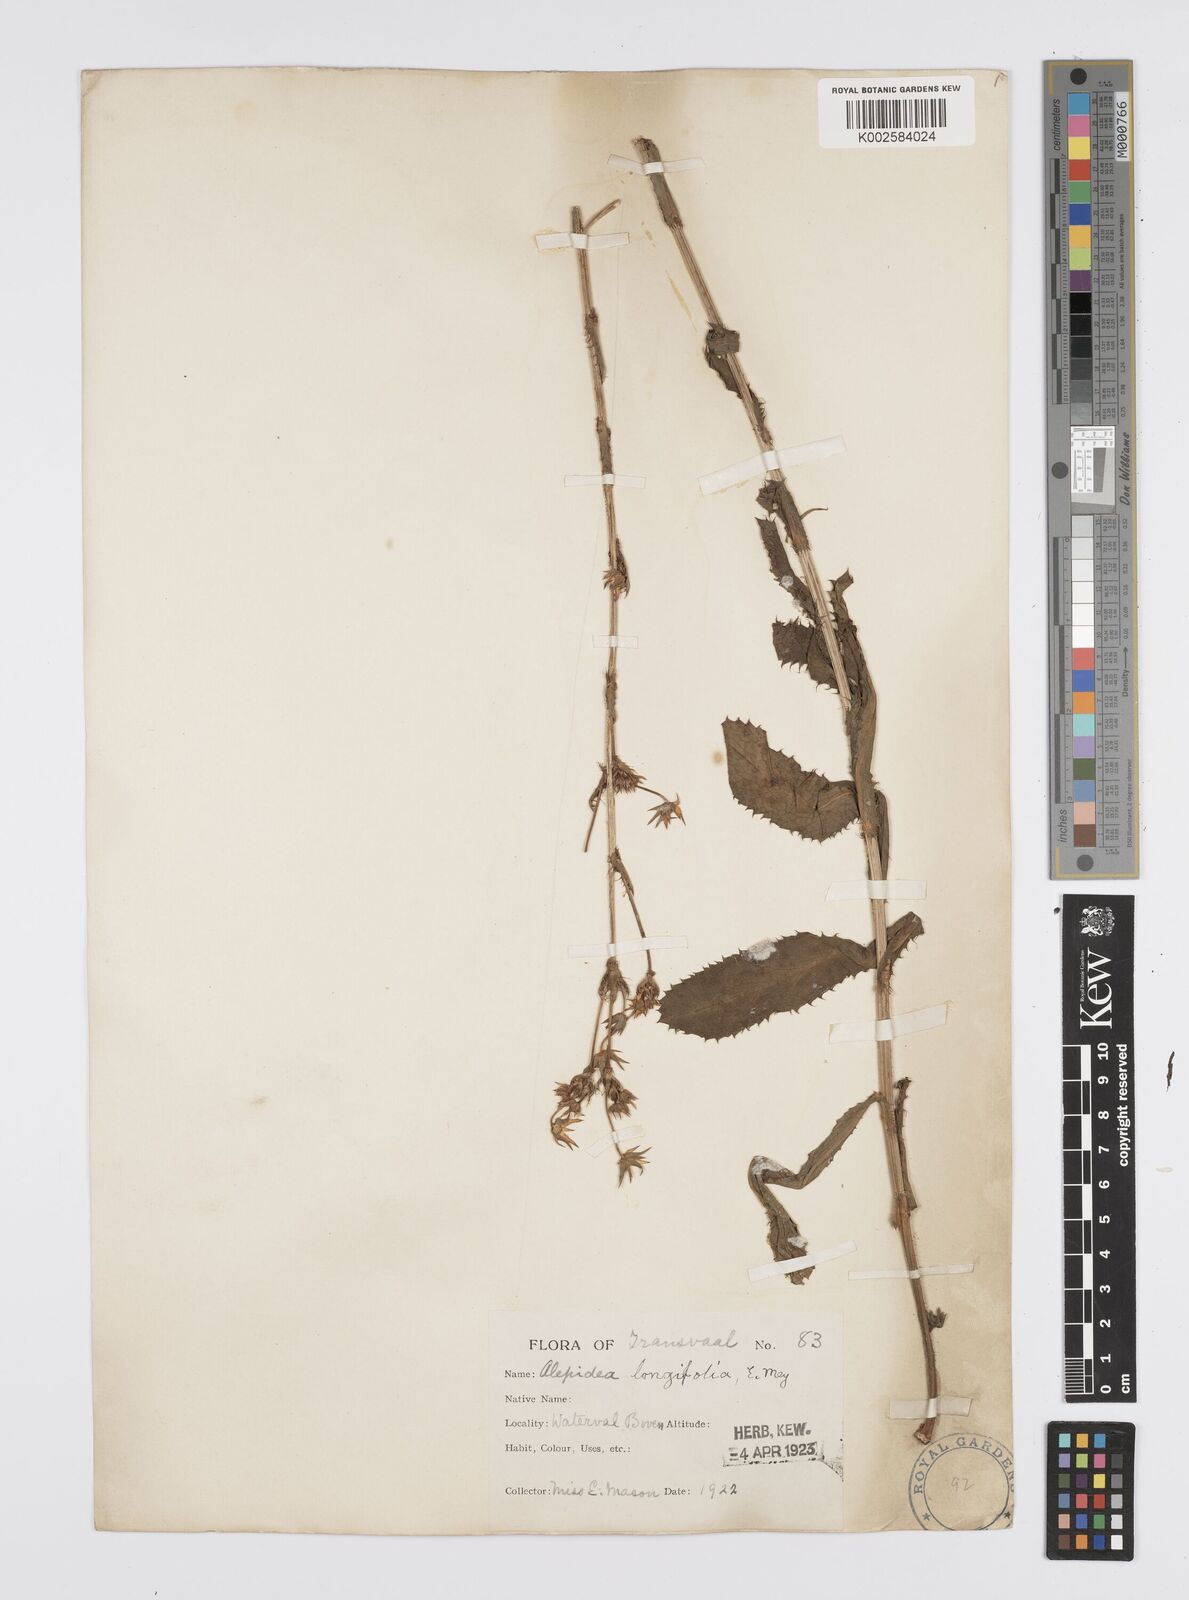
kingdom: Plantae
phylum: Tracheophyta
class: Magnoliopsida
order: Apiales
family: Apiaceae
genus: Alepidea
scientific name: Alepidea
